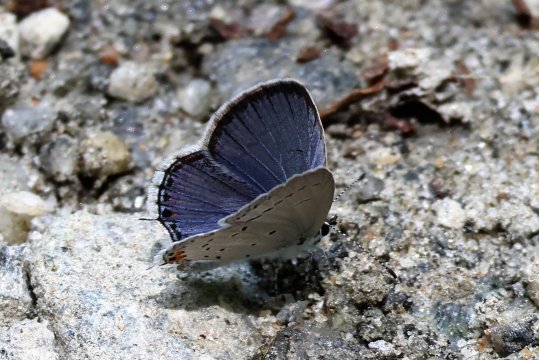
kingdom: Animalia
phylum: Arthropoda
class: Insecta
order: Lepidoptera
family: Lycaenidae
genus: Elkalyce
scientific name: Elkalyce comyntas
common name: Eastern Tailed-Blue
